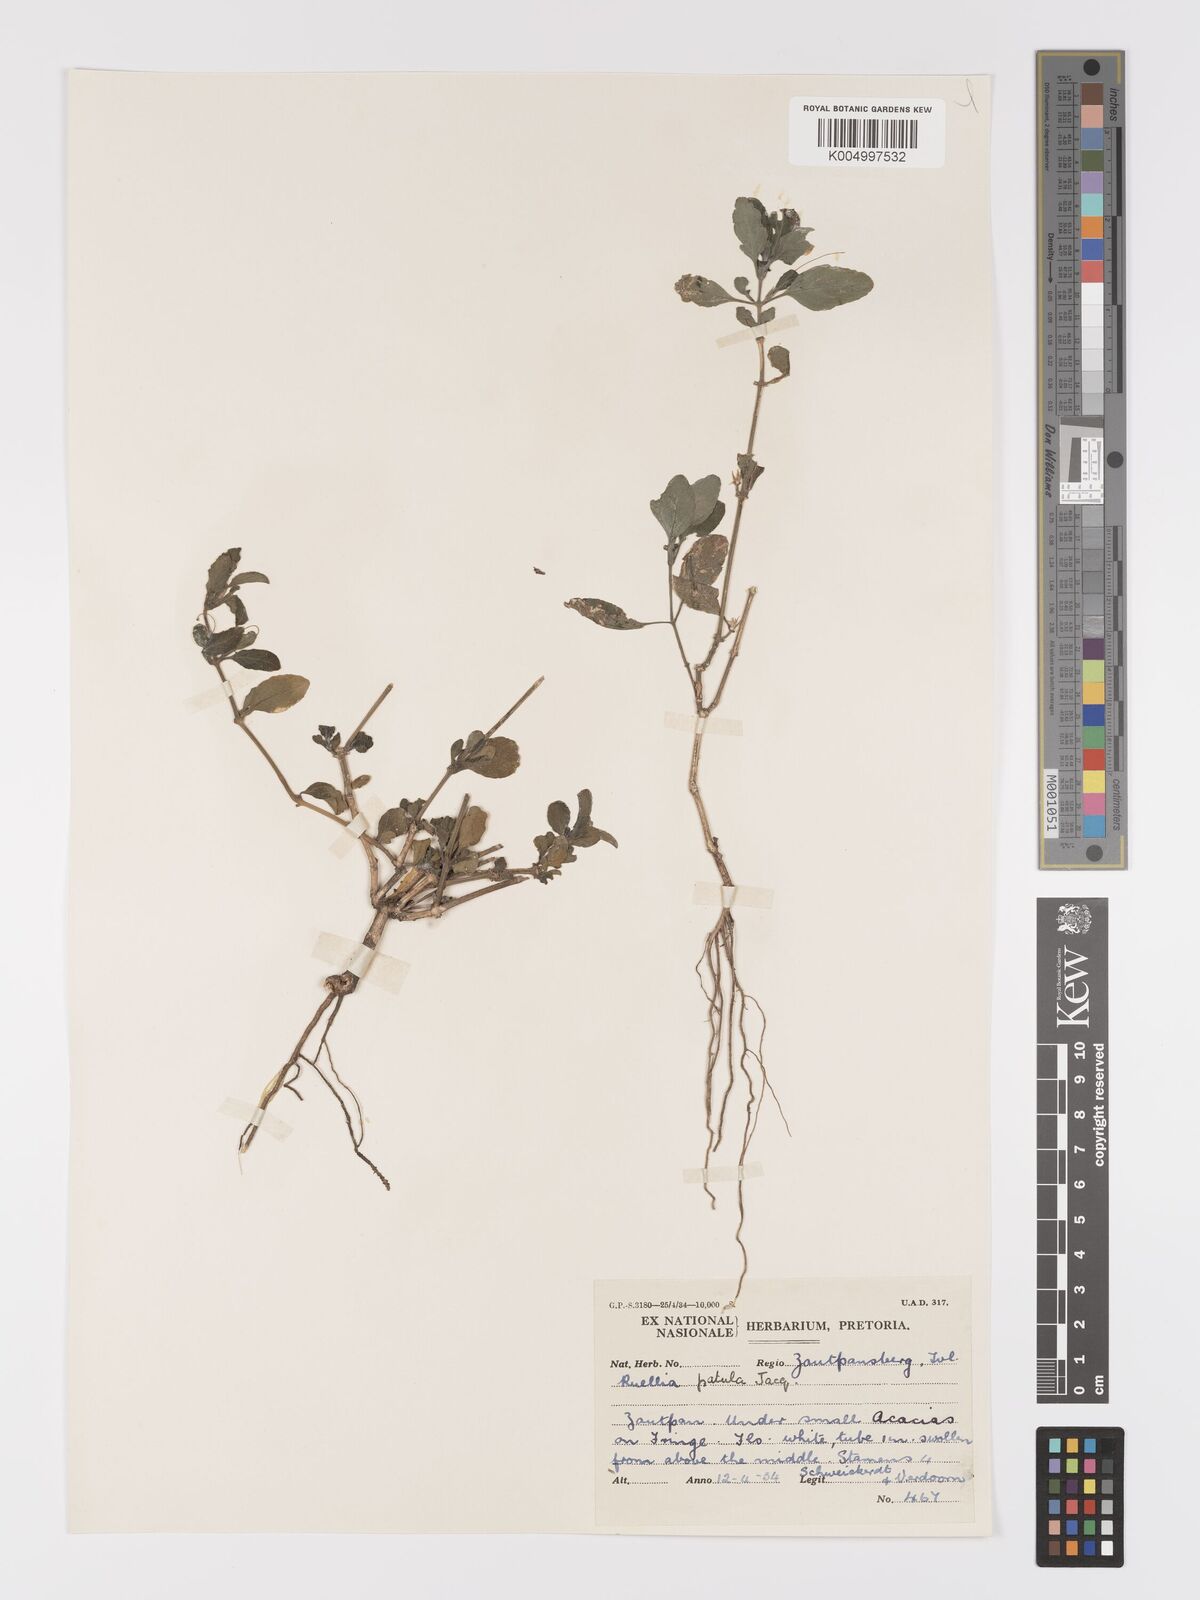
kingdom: Plantae
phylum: Tracheophyta
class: Magnoliopsida
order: Lamiales
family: Acanthaceae
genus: Ruellia
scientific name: Ruellia patula
